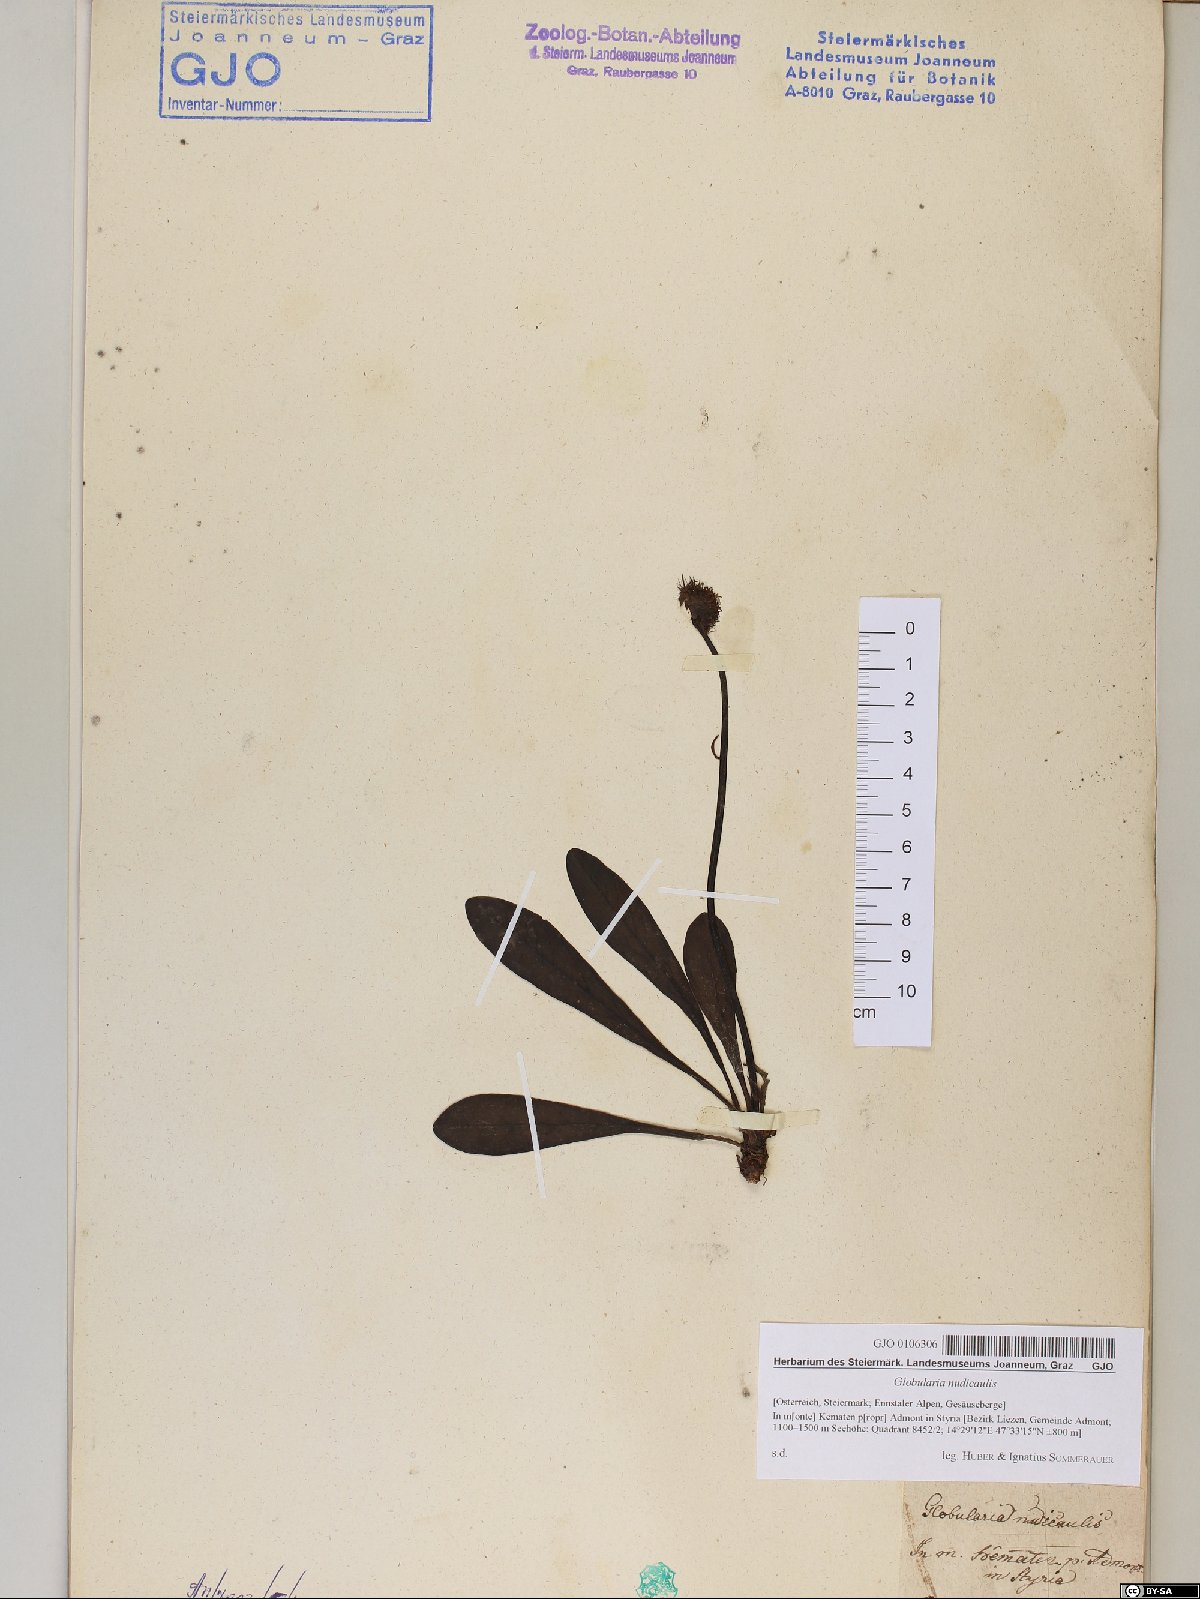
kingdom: Plantae
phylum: Tracheophyta
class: Magnoliopsida
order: Lamiales
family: Plantaginaceae
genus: Globularia
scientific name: Globularia nudicaulis
